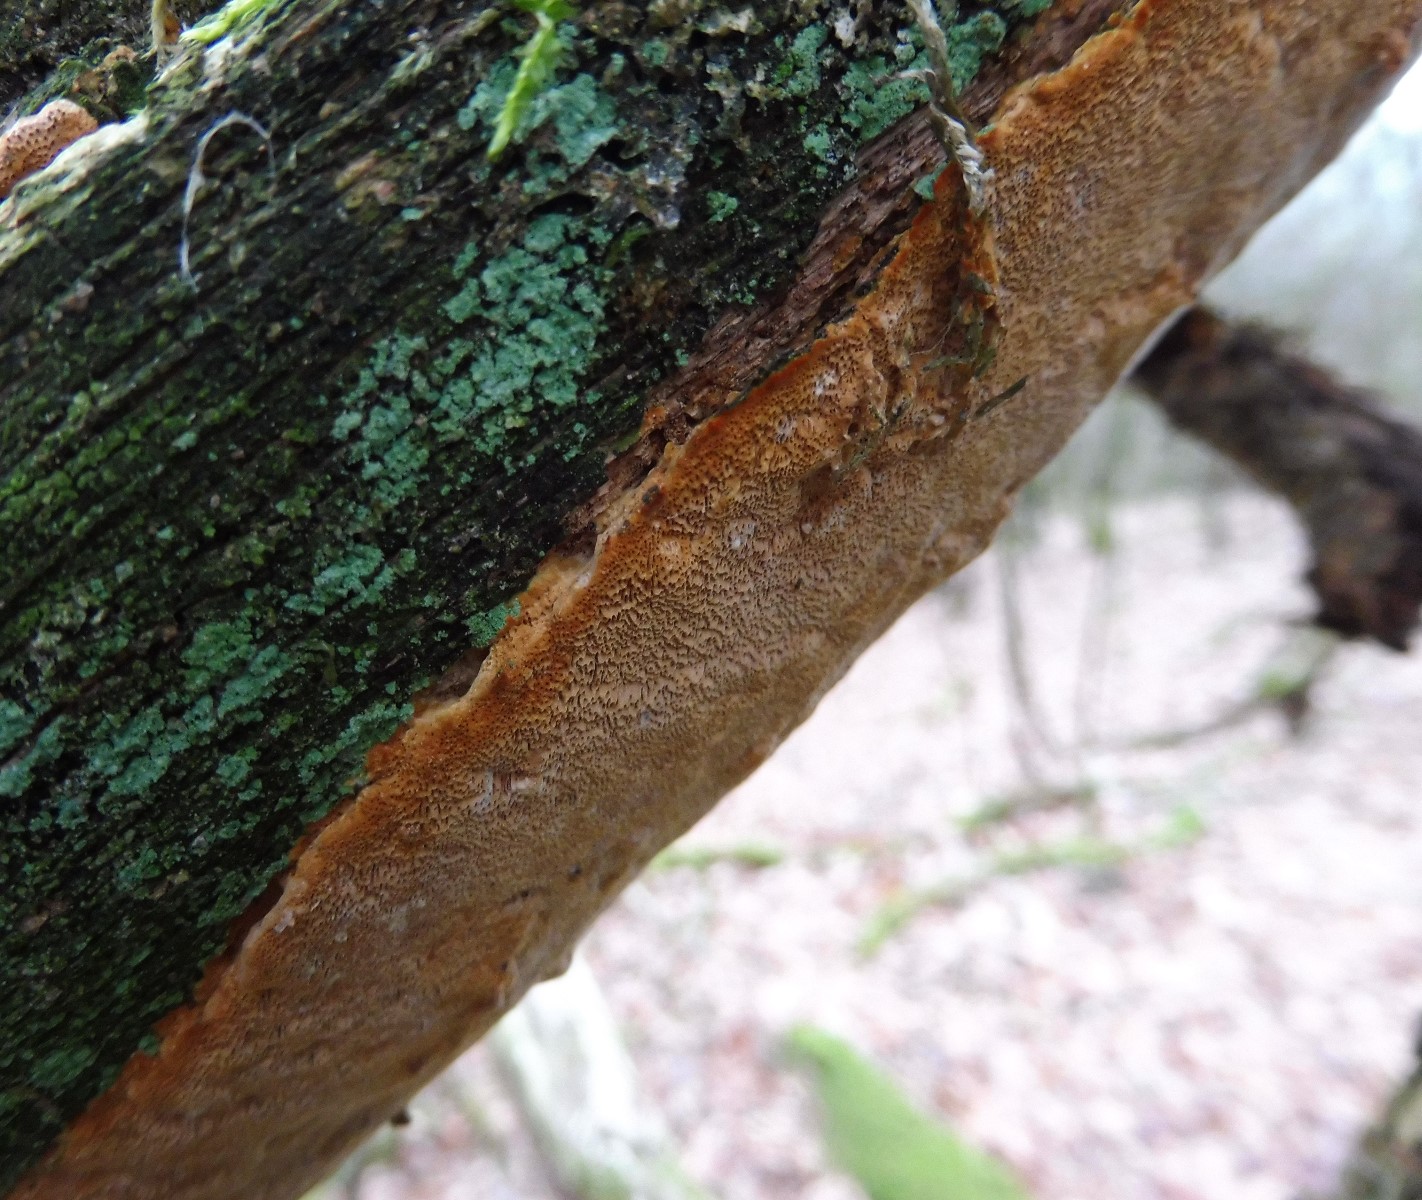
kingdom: Fungi
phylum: Basidiomycota
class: Agaricomycetes
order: Hymenochaetales
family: Hymenochaetaceae
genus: Fuscoporia
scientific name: Fuscoporia ferrea
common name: skorpe-ildporesvamp
